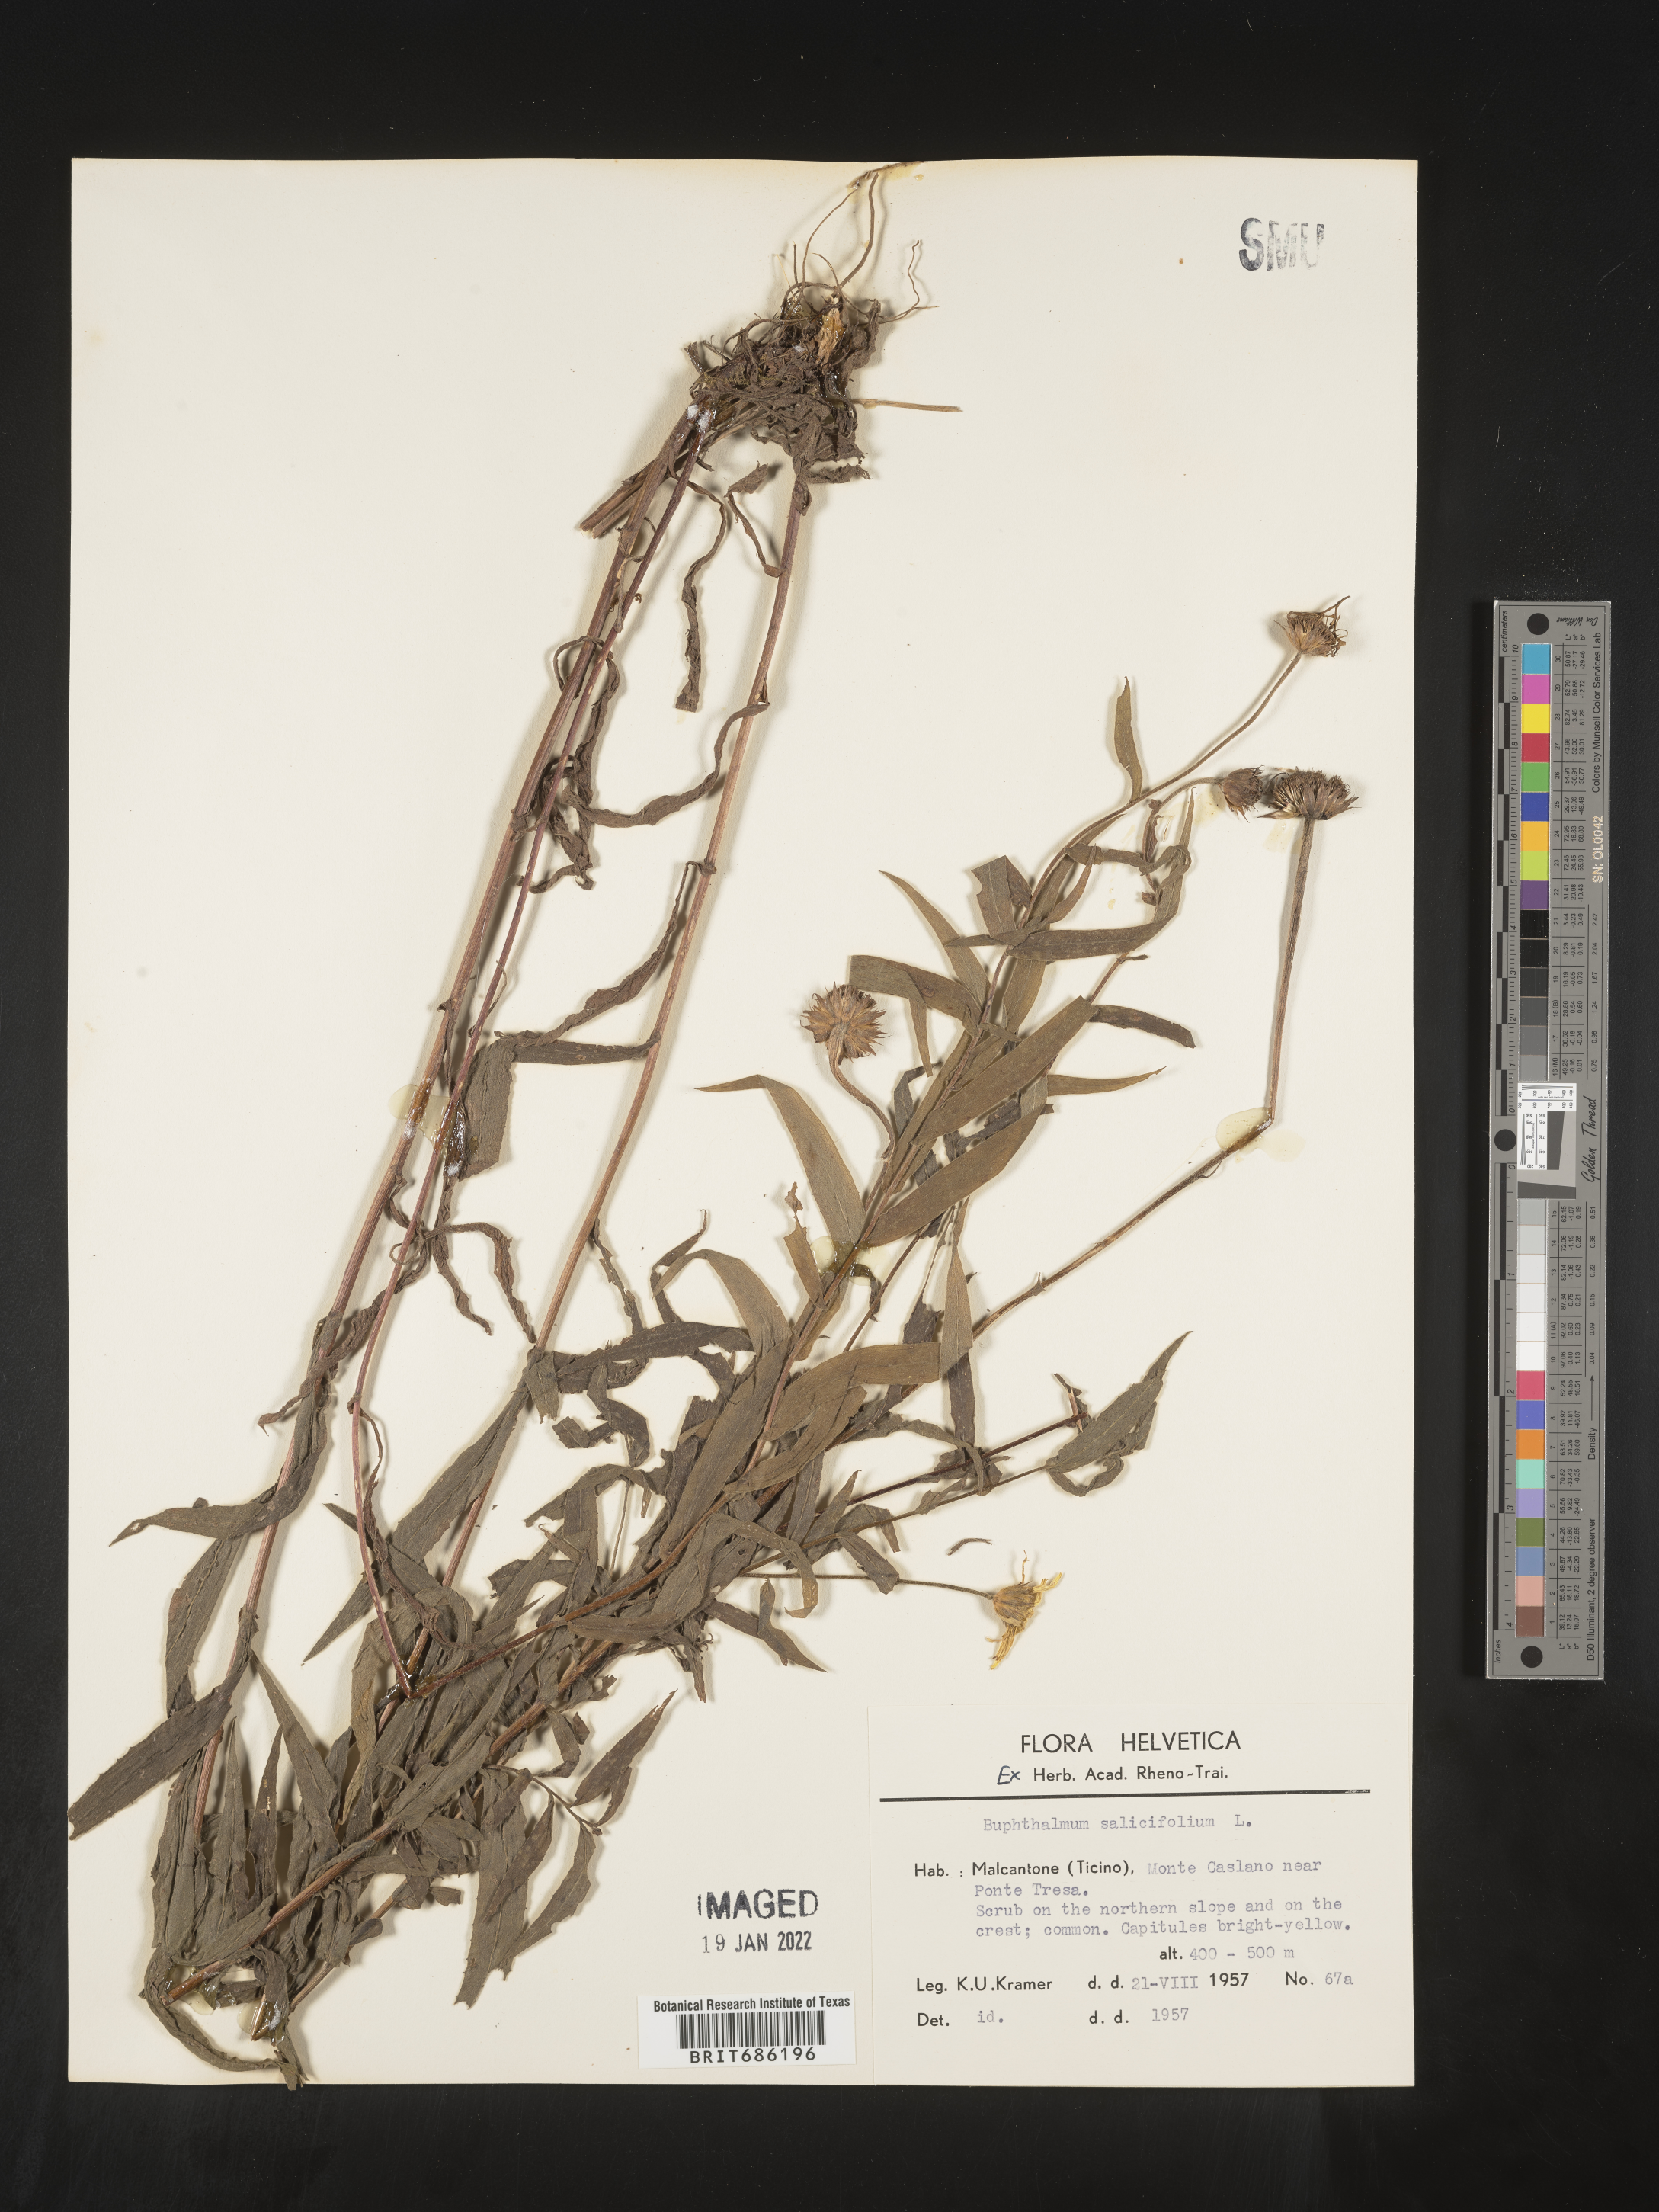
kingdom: Plantae
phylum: Tracheophyta
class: Magnoliopsida
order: Asterales
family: Asteraceae
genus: Buphthalmum
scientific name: Buphthalmum
